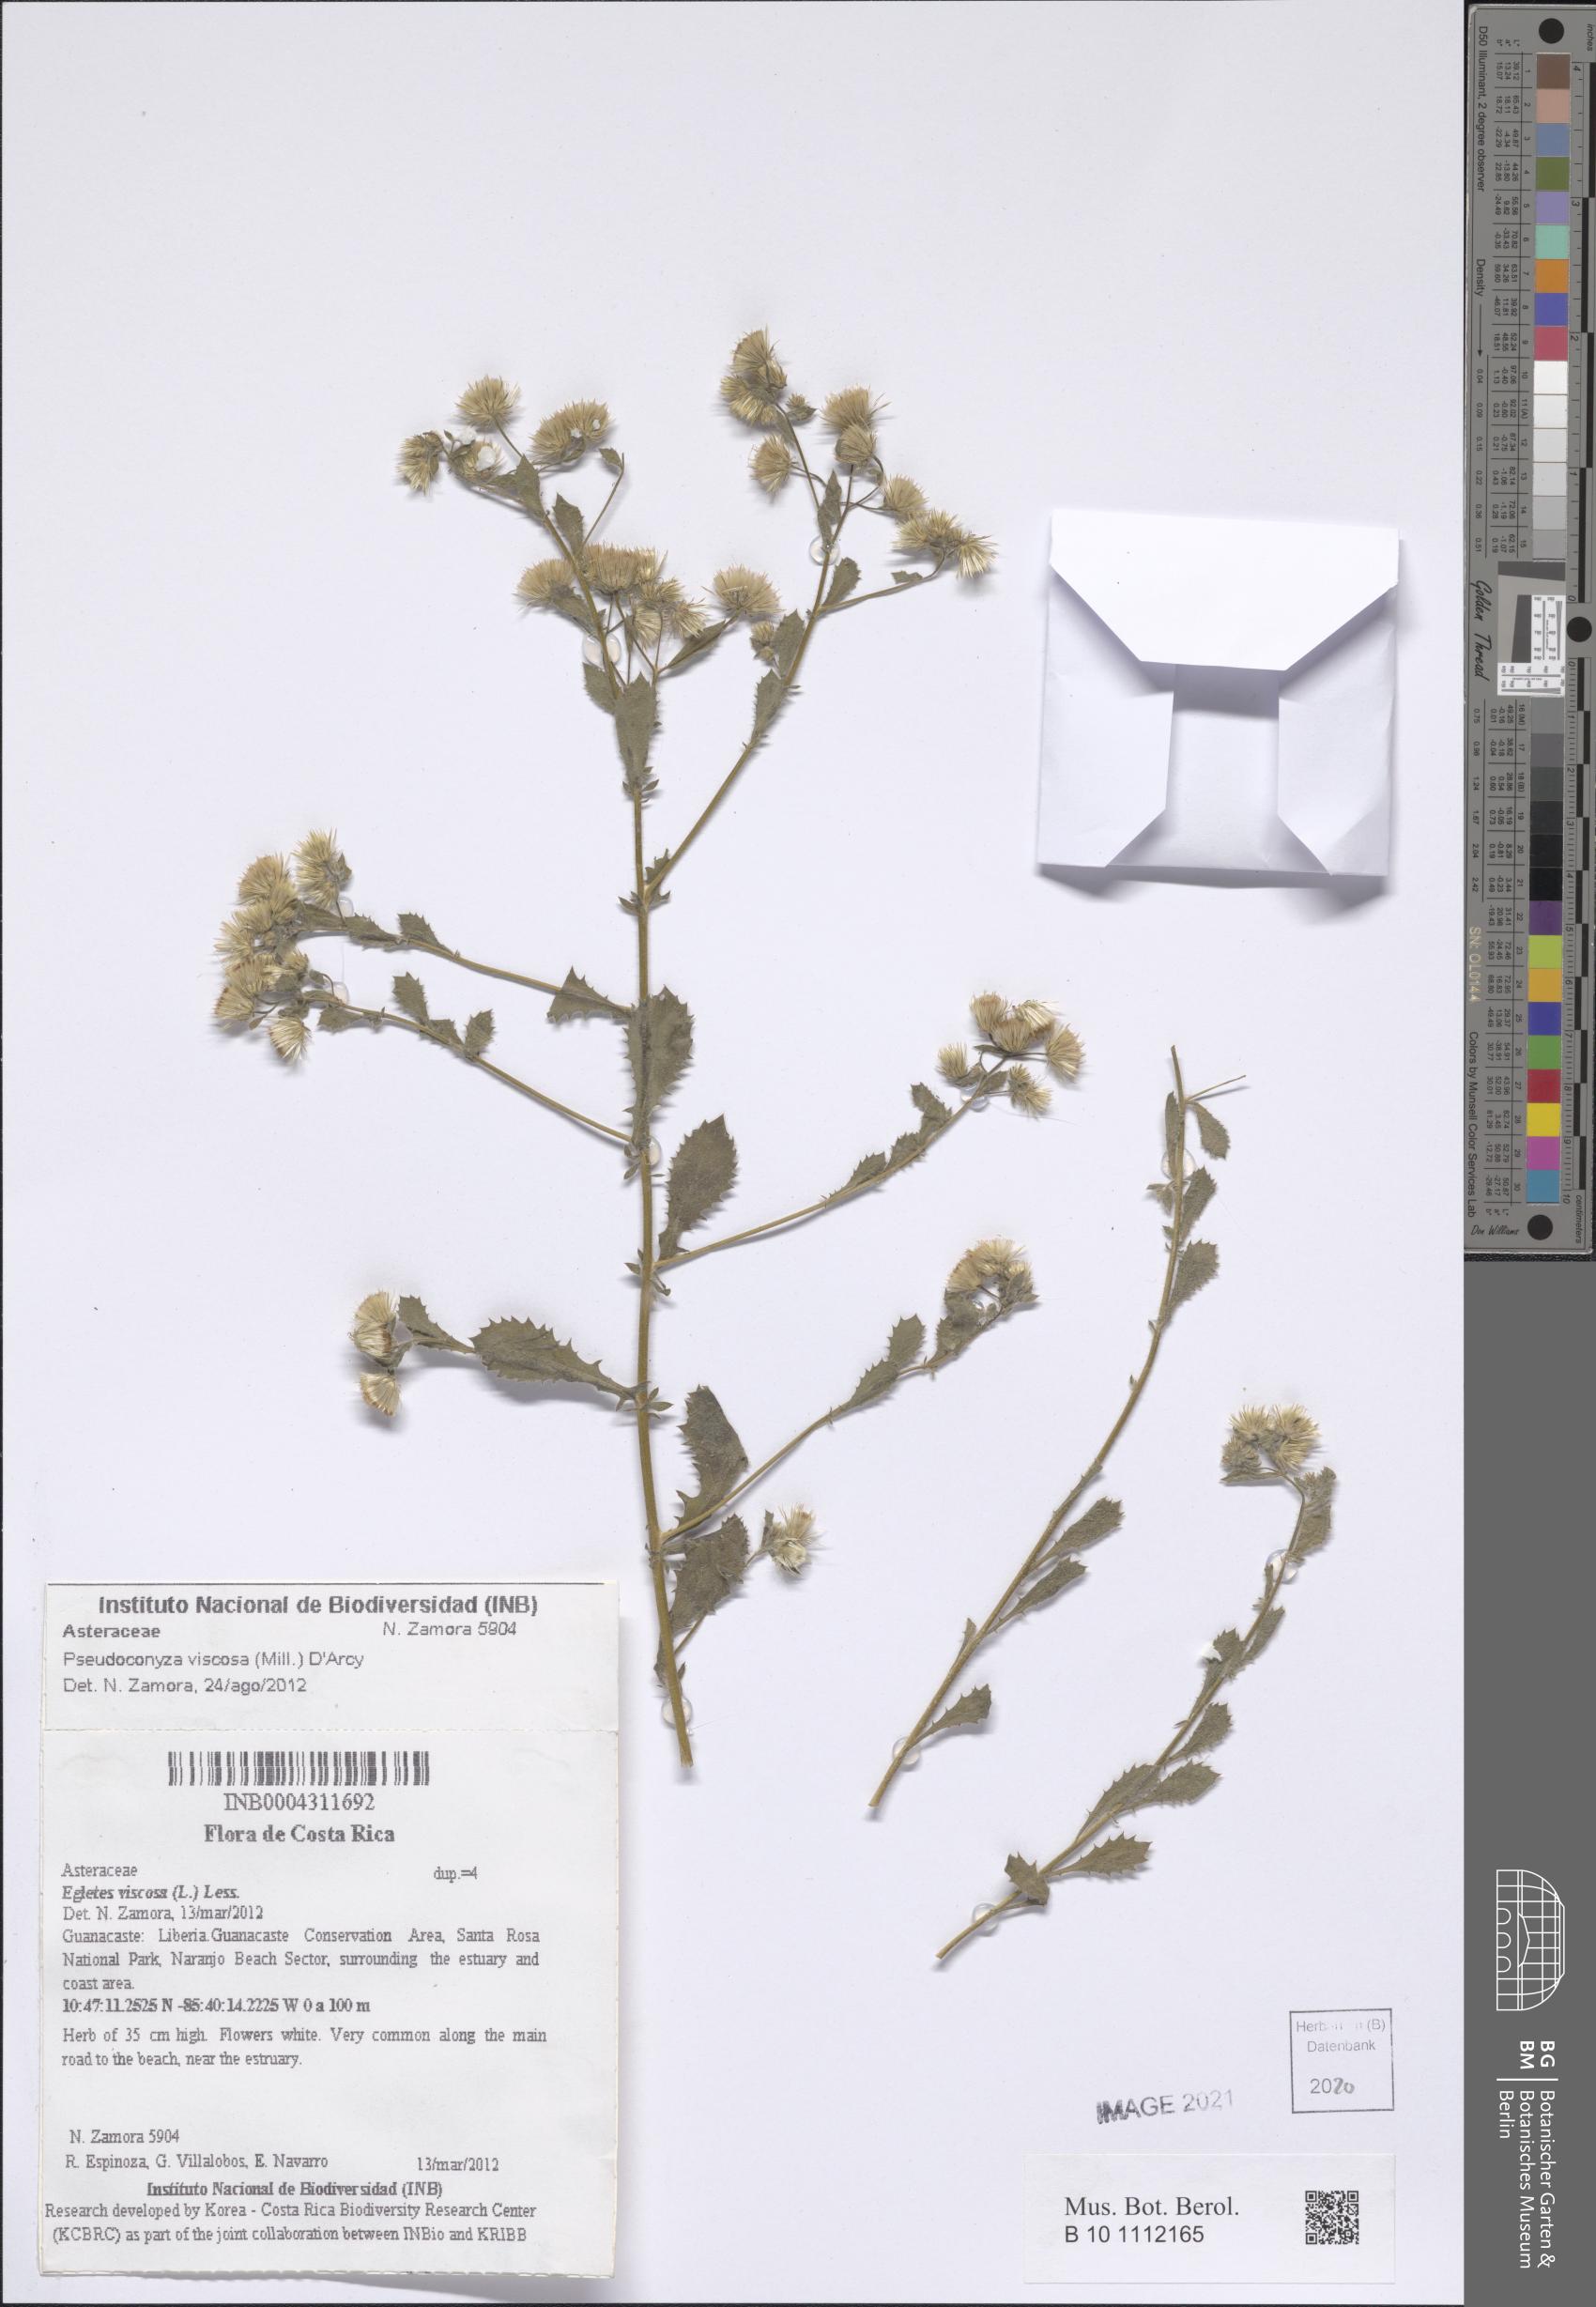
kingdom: Plantae
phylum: Tracheophyta
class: Magnoliopsida
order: Asterales
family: Asteraceae
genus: Pseudoconyza
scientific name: Pseudoconyza viscosa
